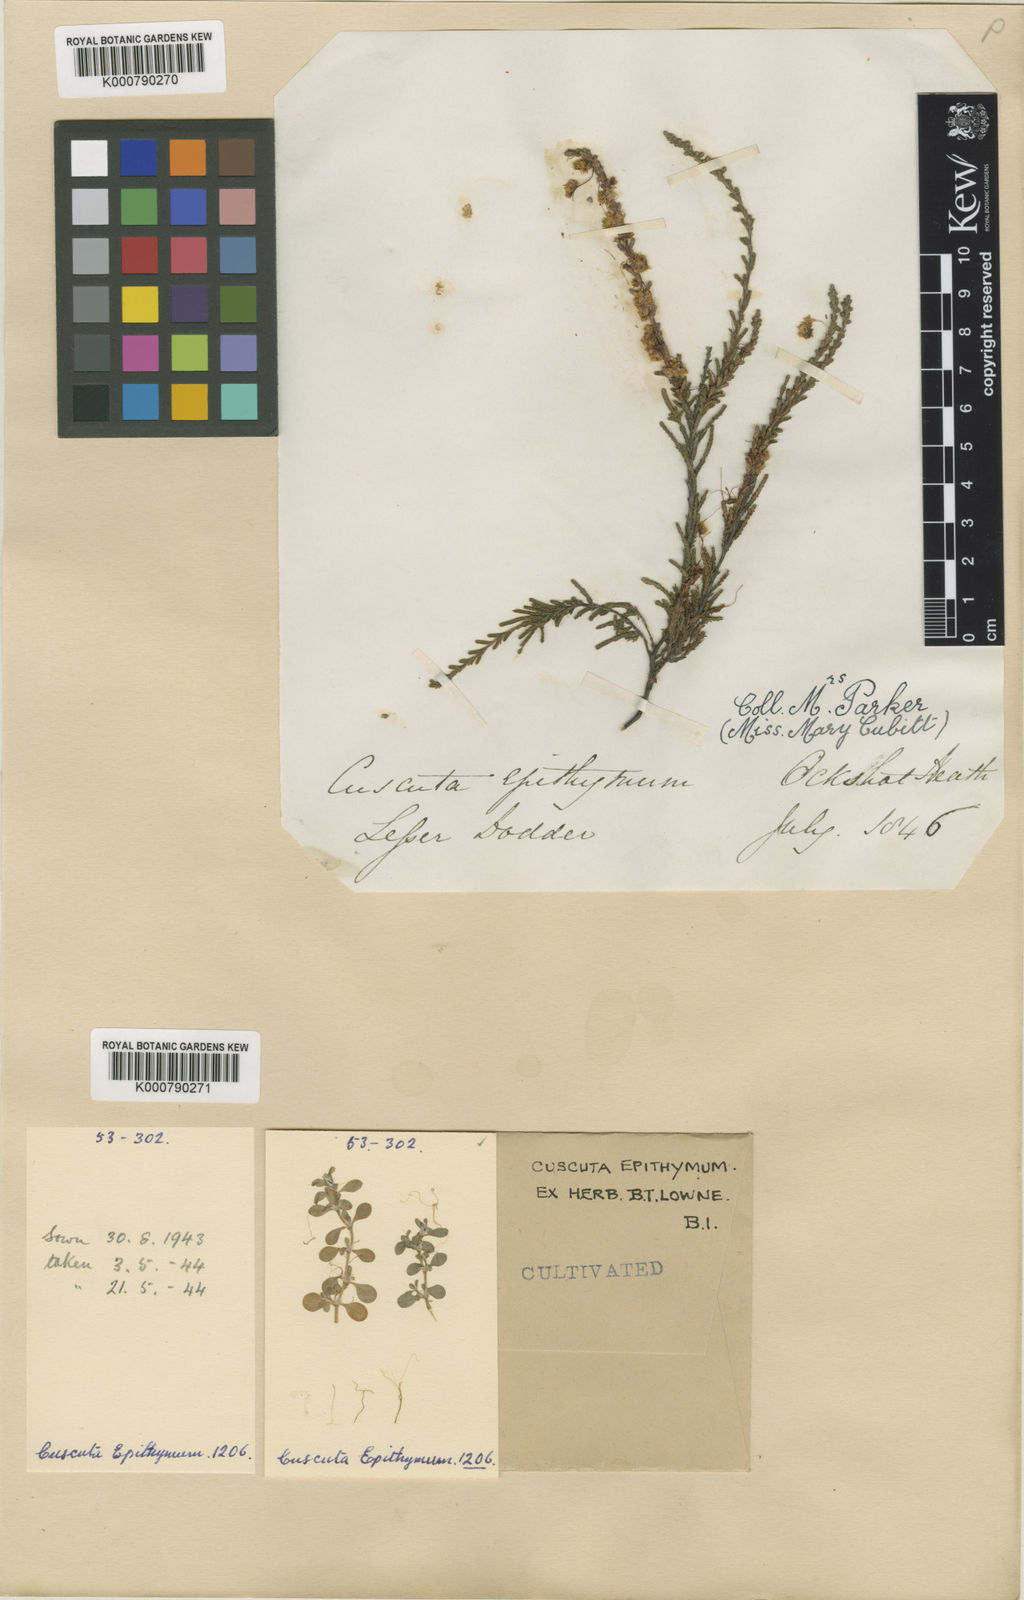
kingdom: Plantae
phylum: Tracheophyta
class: Magnoliopsida
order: Solanales
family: Convolvulaceae
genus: Cuscuta
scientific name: Cuscuta epithymum
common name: Clover dodder
